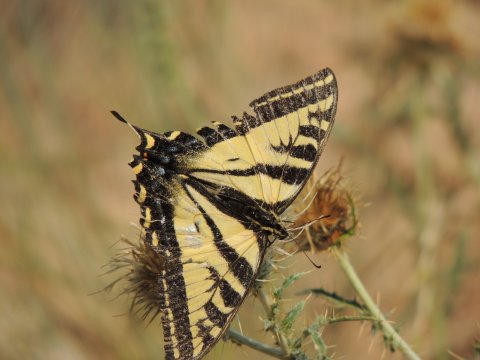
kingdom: Animalia
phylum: Arthropoda
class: Insecta
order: Lepidoptera
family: Papilionidae
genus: Pterourus
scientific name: Pterourus rutulus
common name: Western Tiger Swallowtail
